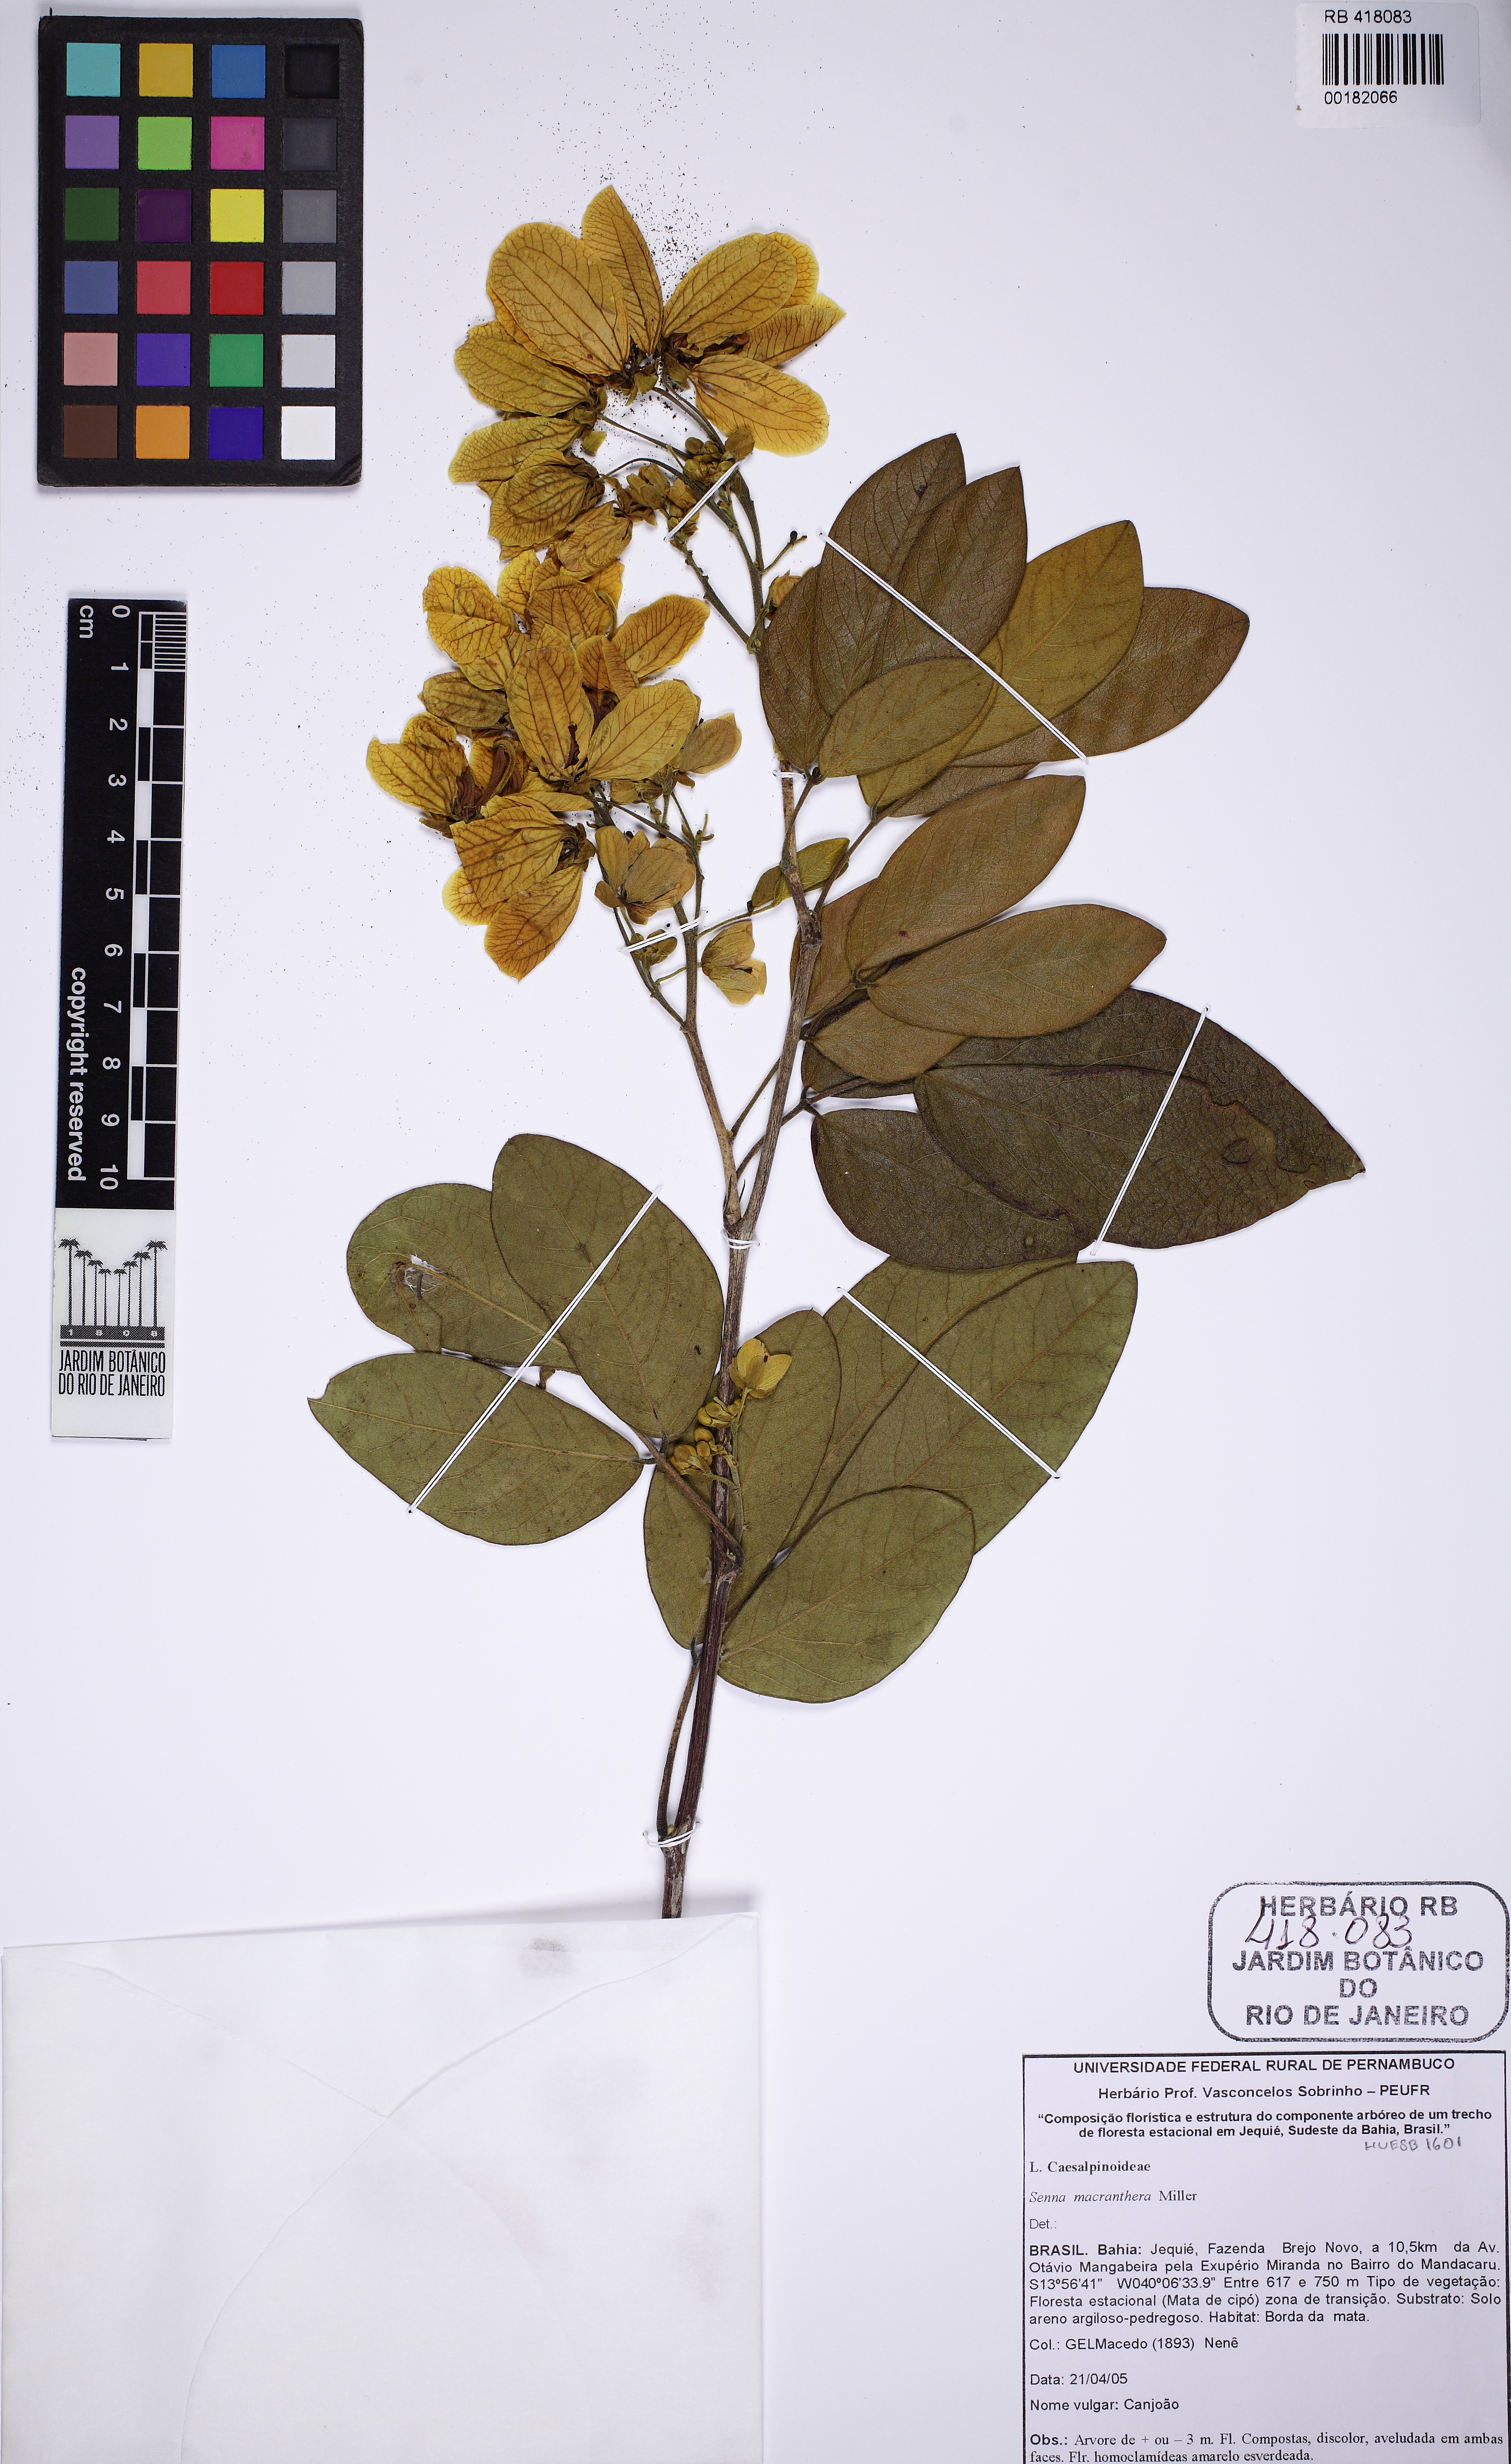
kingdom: Plantae
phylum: Tracheophyta
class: Magnoliopsida
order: Fabales
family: Fabaceae
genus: Senna
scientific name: Senna macranthera
